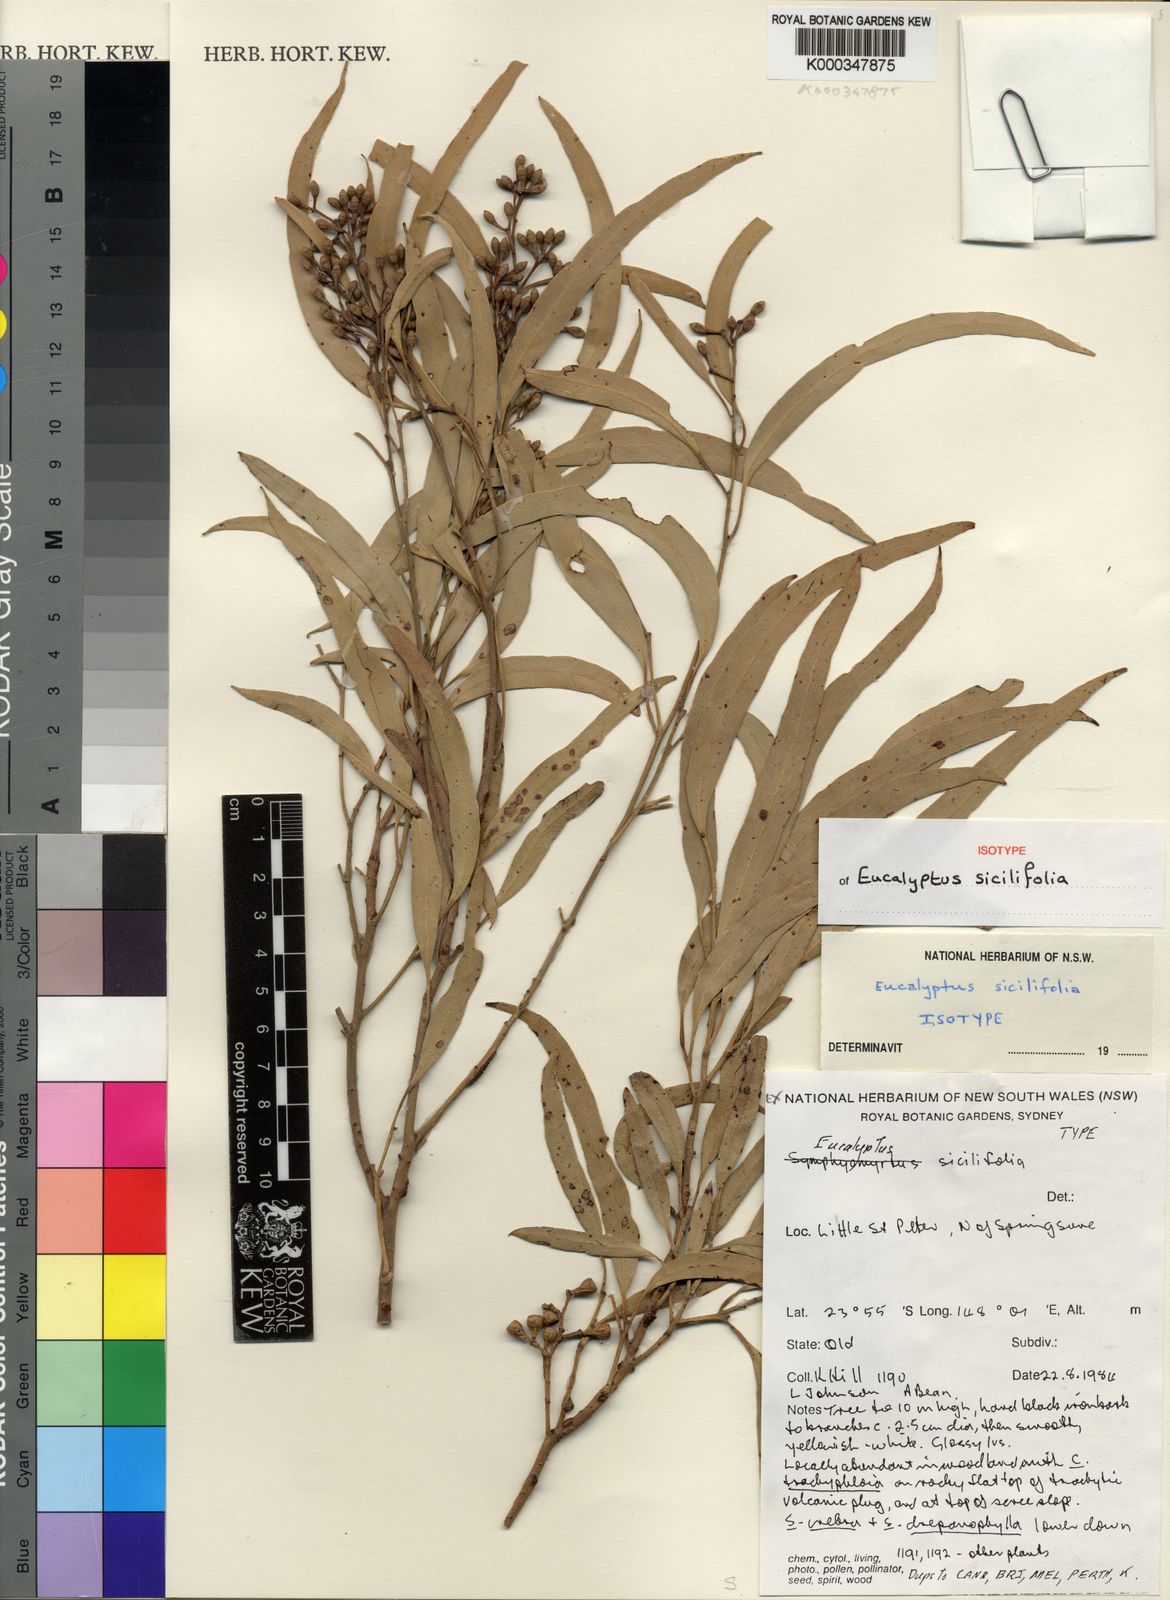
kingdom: Plantae
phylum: Tracheophyta
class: Magnoliopsida
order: Myrtales
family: Myrtaceae
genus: Eucalyptus
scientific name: Eucalyptus sicilifolia
